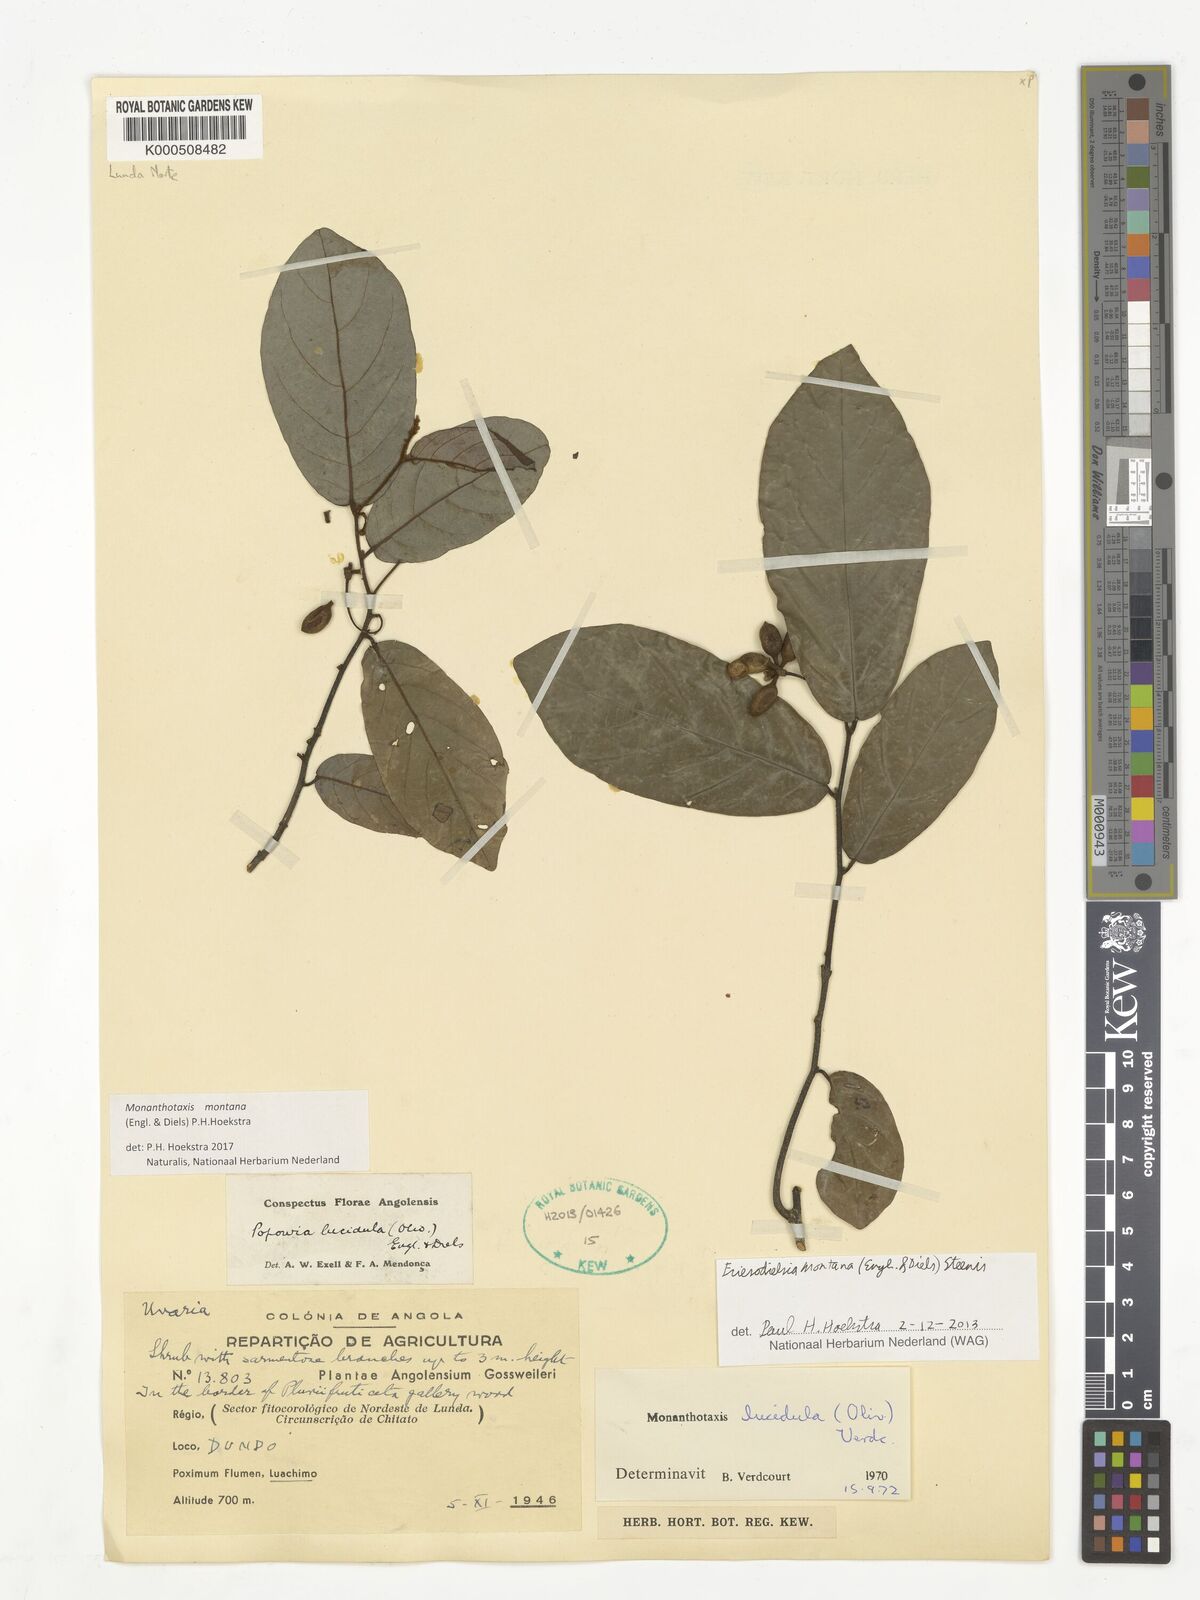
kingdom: Plantae
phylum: Tracheophyta
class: Magnoliopsida
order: Magnoliales
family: Annonaceae
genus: Friesodielsia
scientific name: Friesodielsia montana
